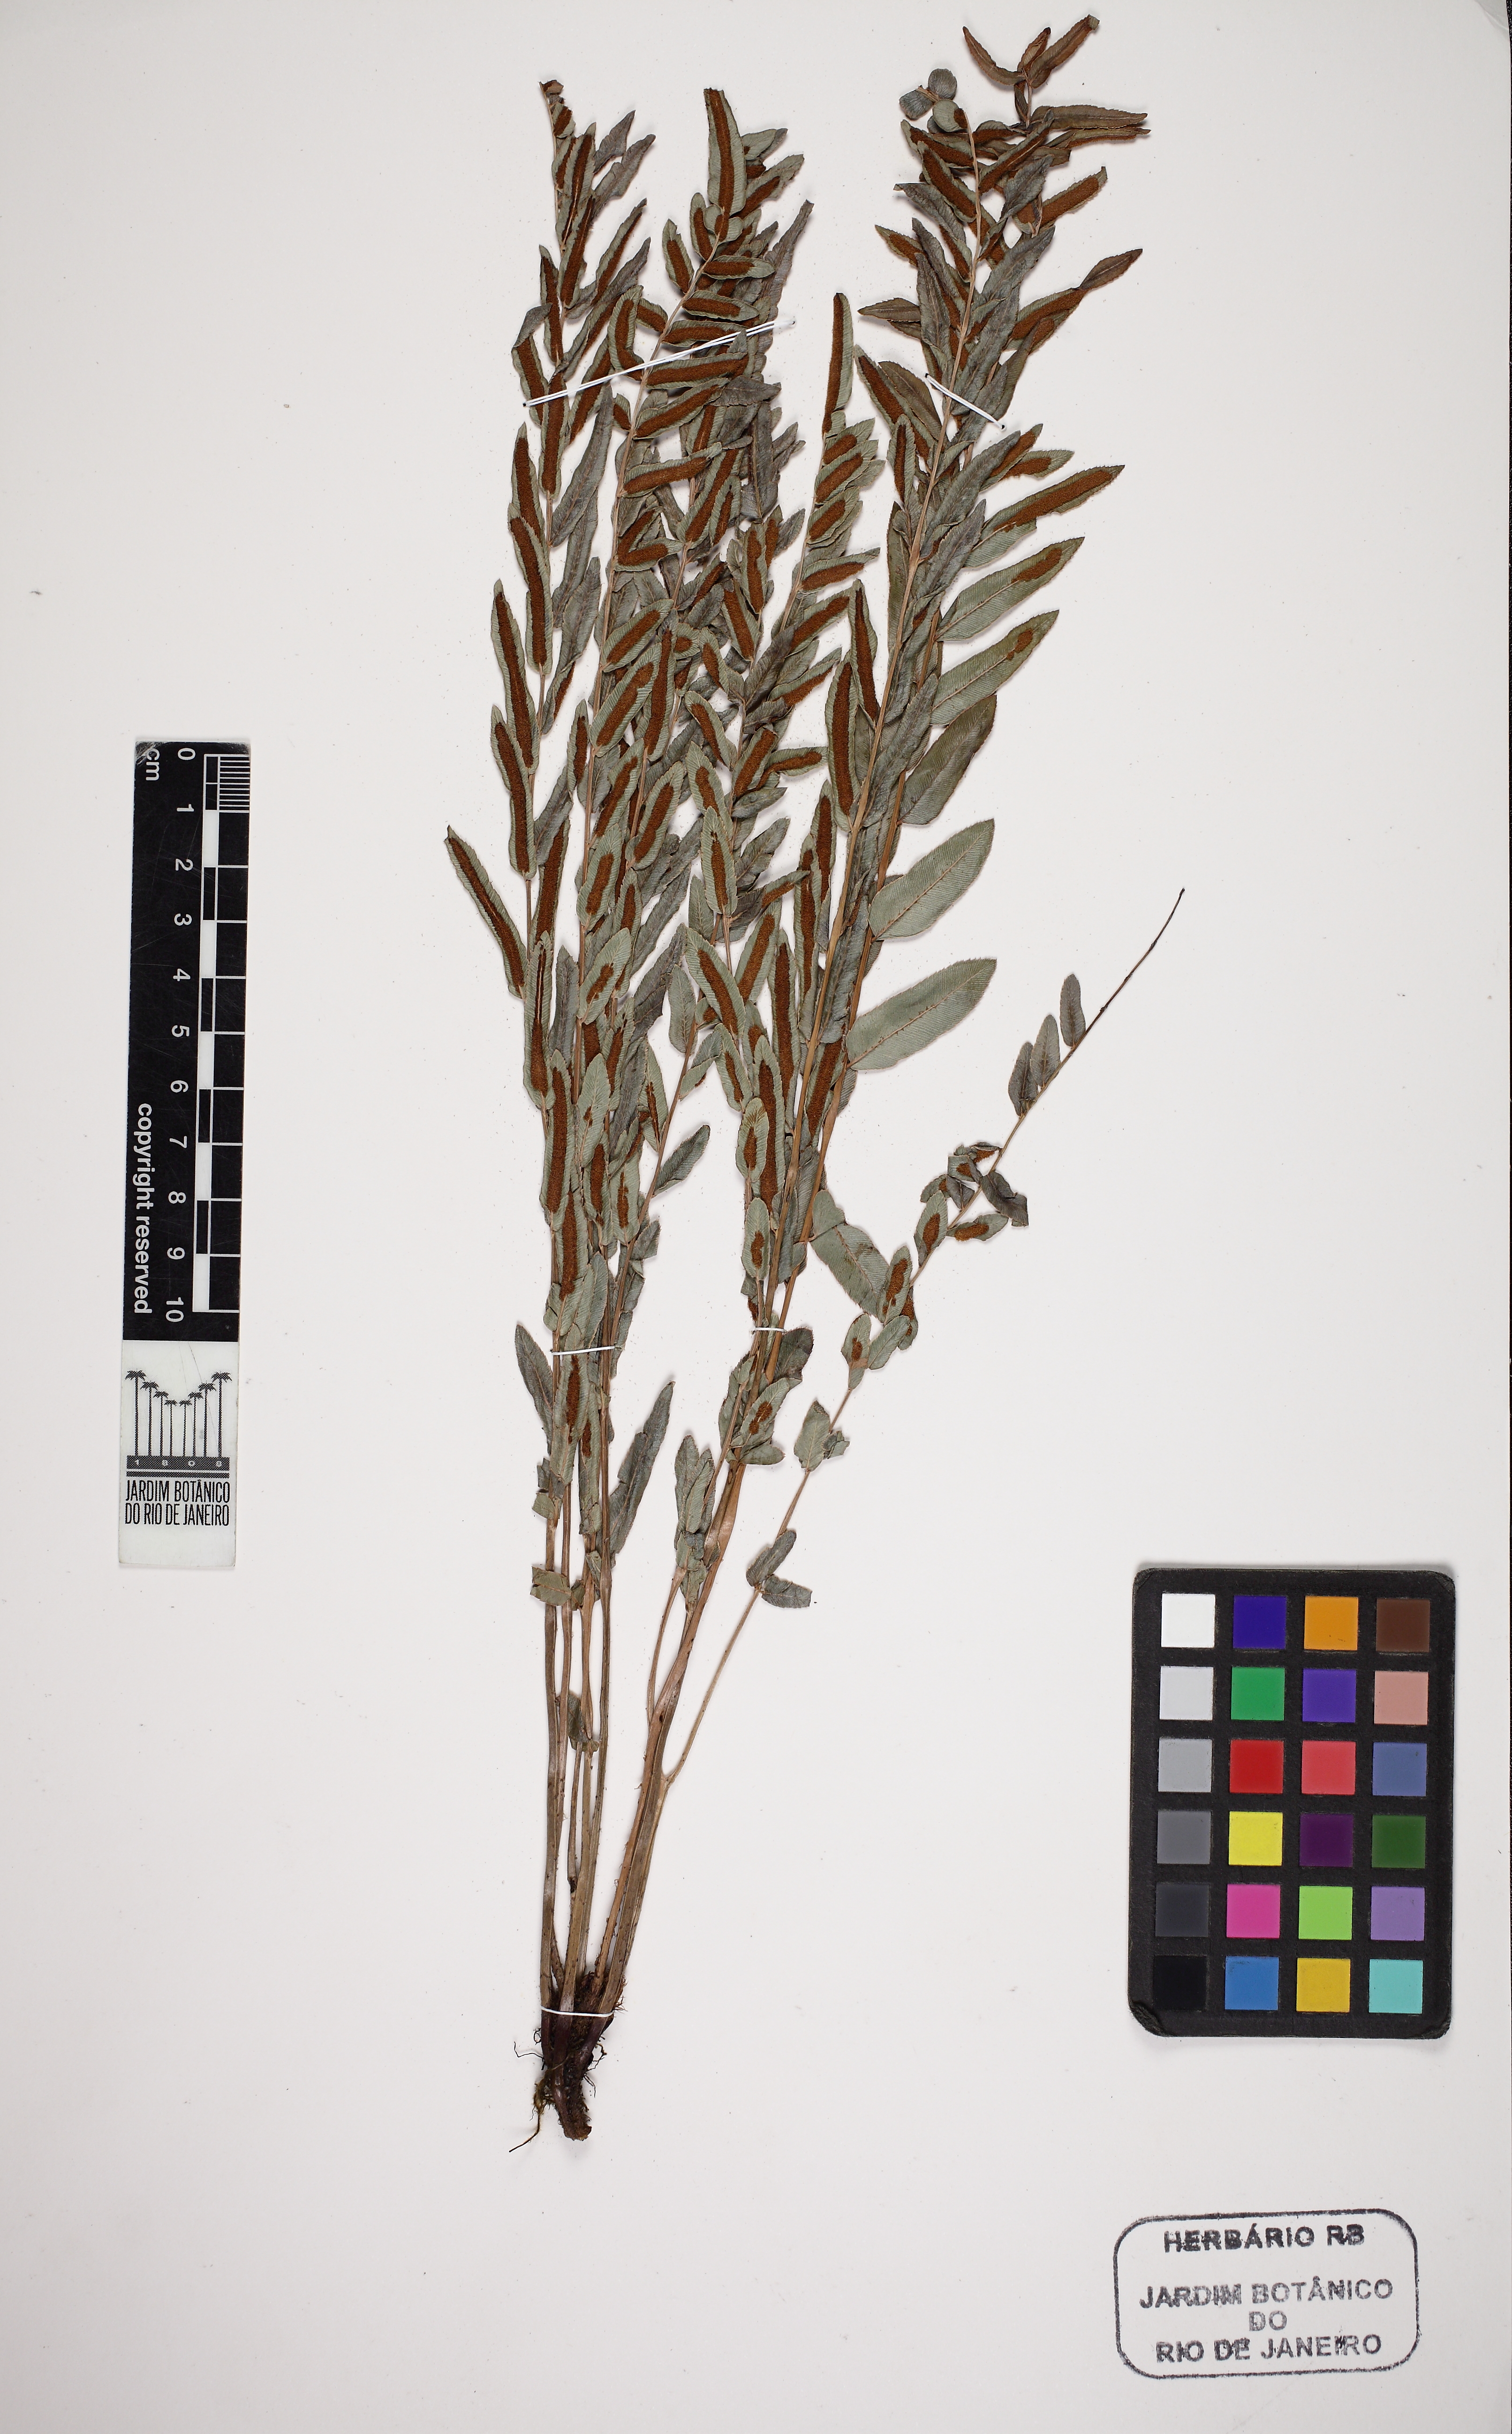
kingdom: Plantae
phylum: Tracheophyta
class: Polypodiopsida
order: Polypodiales
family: Blechnaceae
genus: Telmatoblechnum
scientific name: Telmatoblechnum serrulatum
